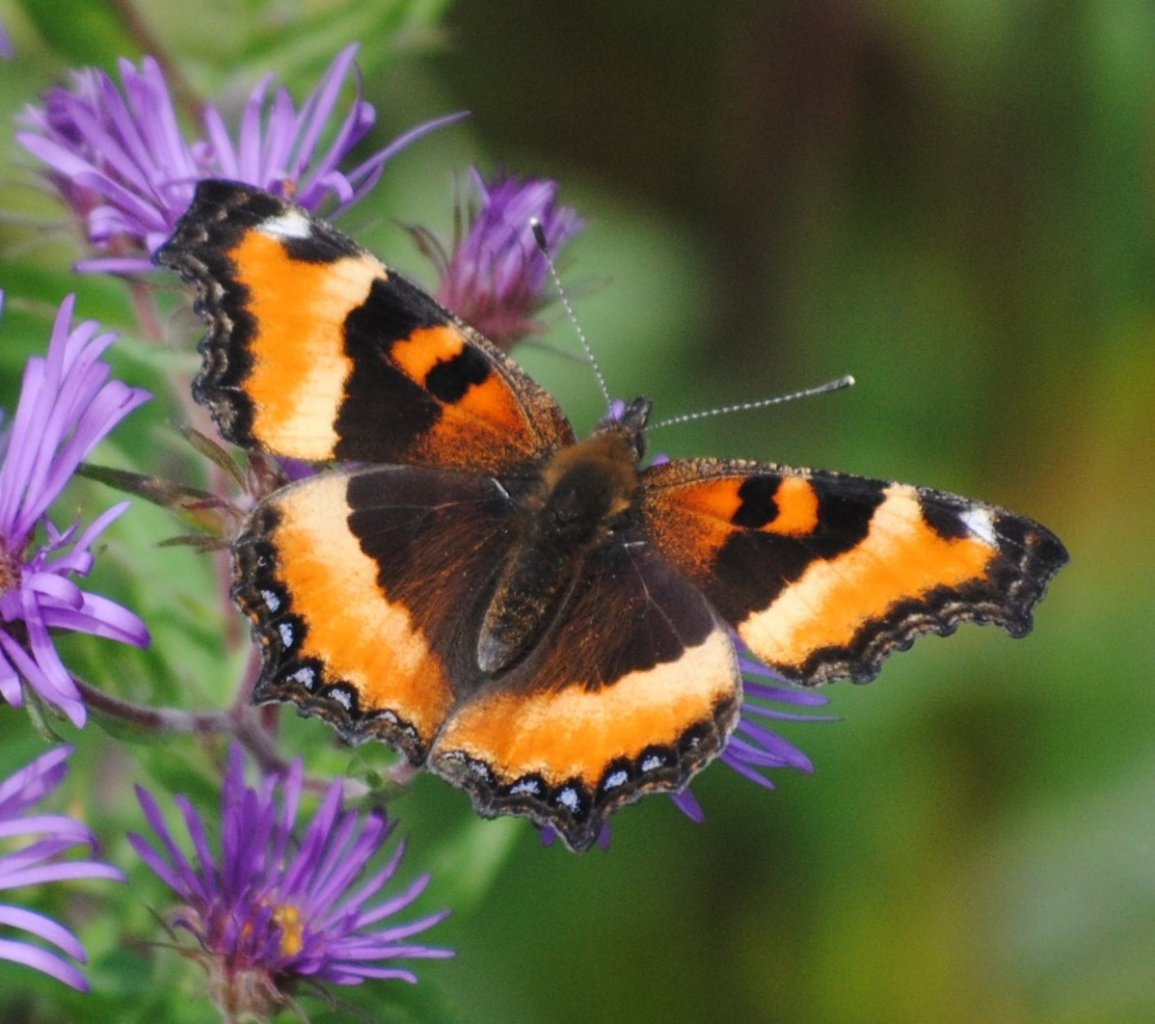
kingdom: Animalia
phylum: Arthropoda
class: Insecta
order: Lepidoptera
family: Nymphalidae
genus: Aglais
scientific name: Aglais milberti
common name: Milbert's Tortoiseshell
